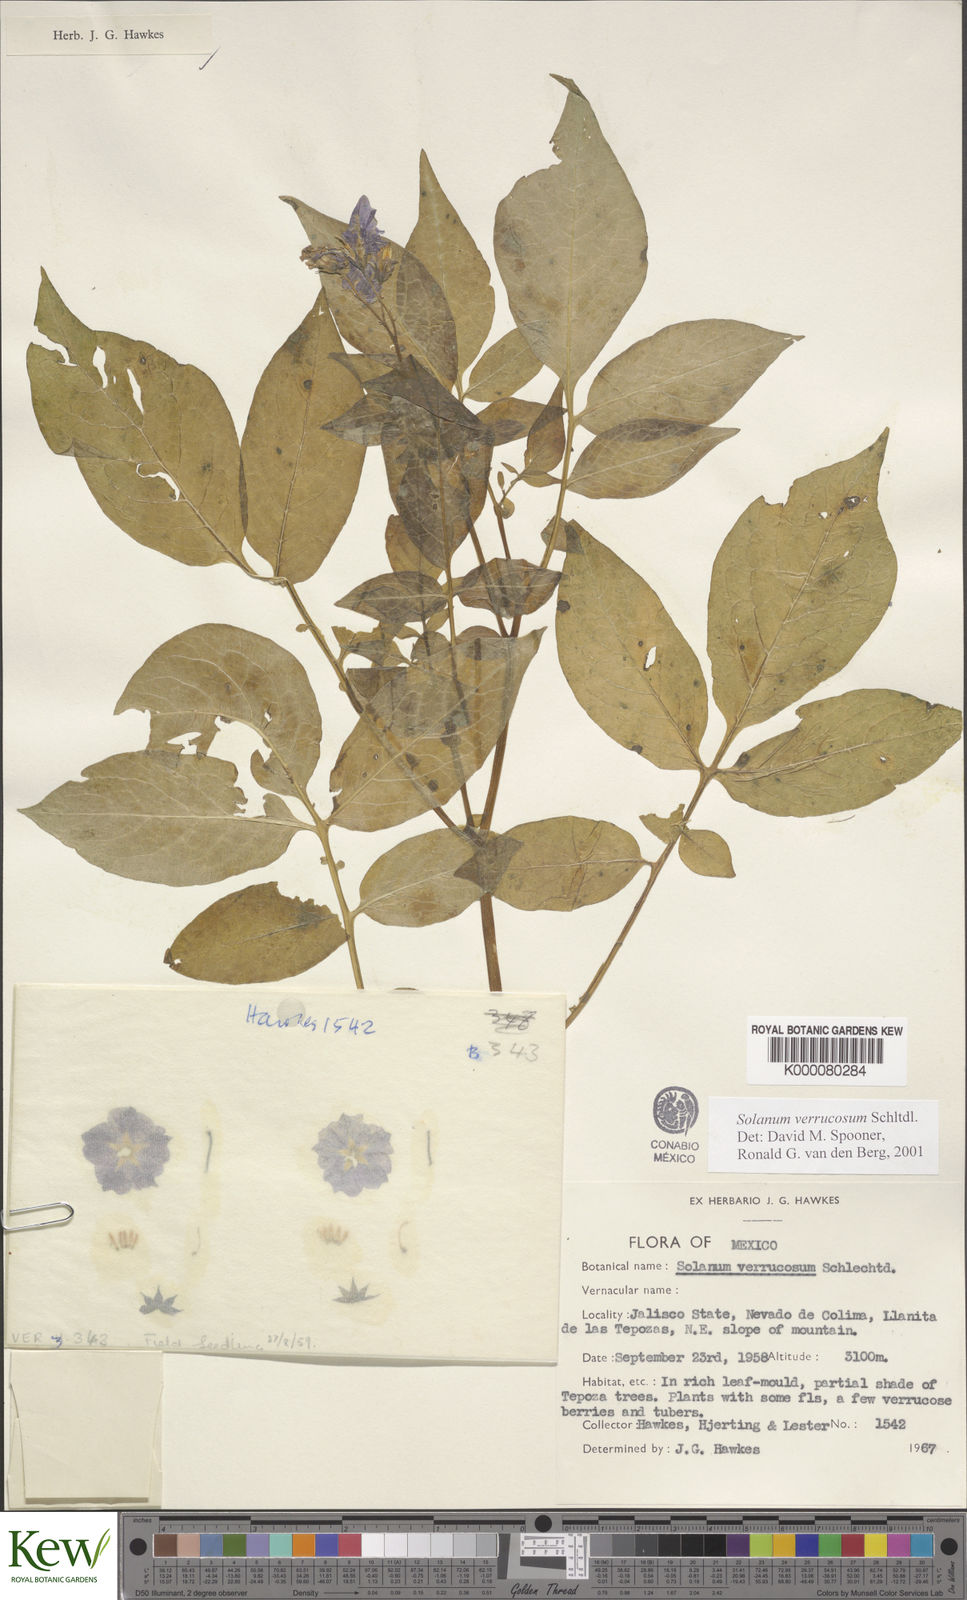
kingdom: Plantae
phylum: Tracheophyta
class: Magnoliopsida
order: Solanales
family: Solanaceae
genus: Solanum
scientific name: Solanum verrucosum
